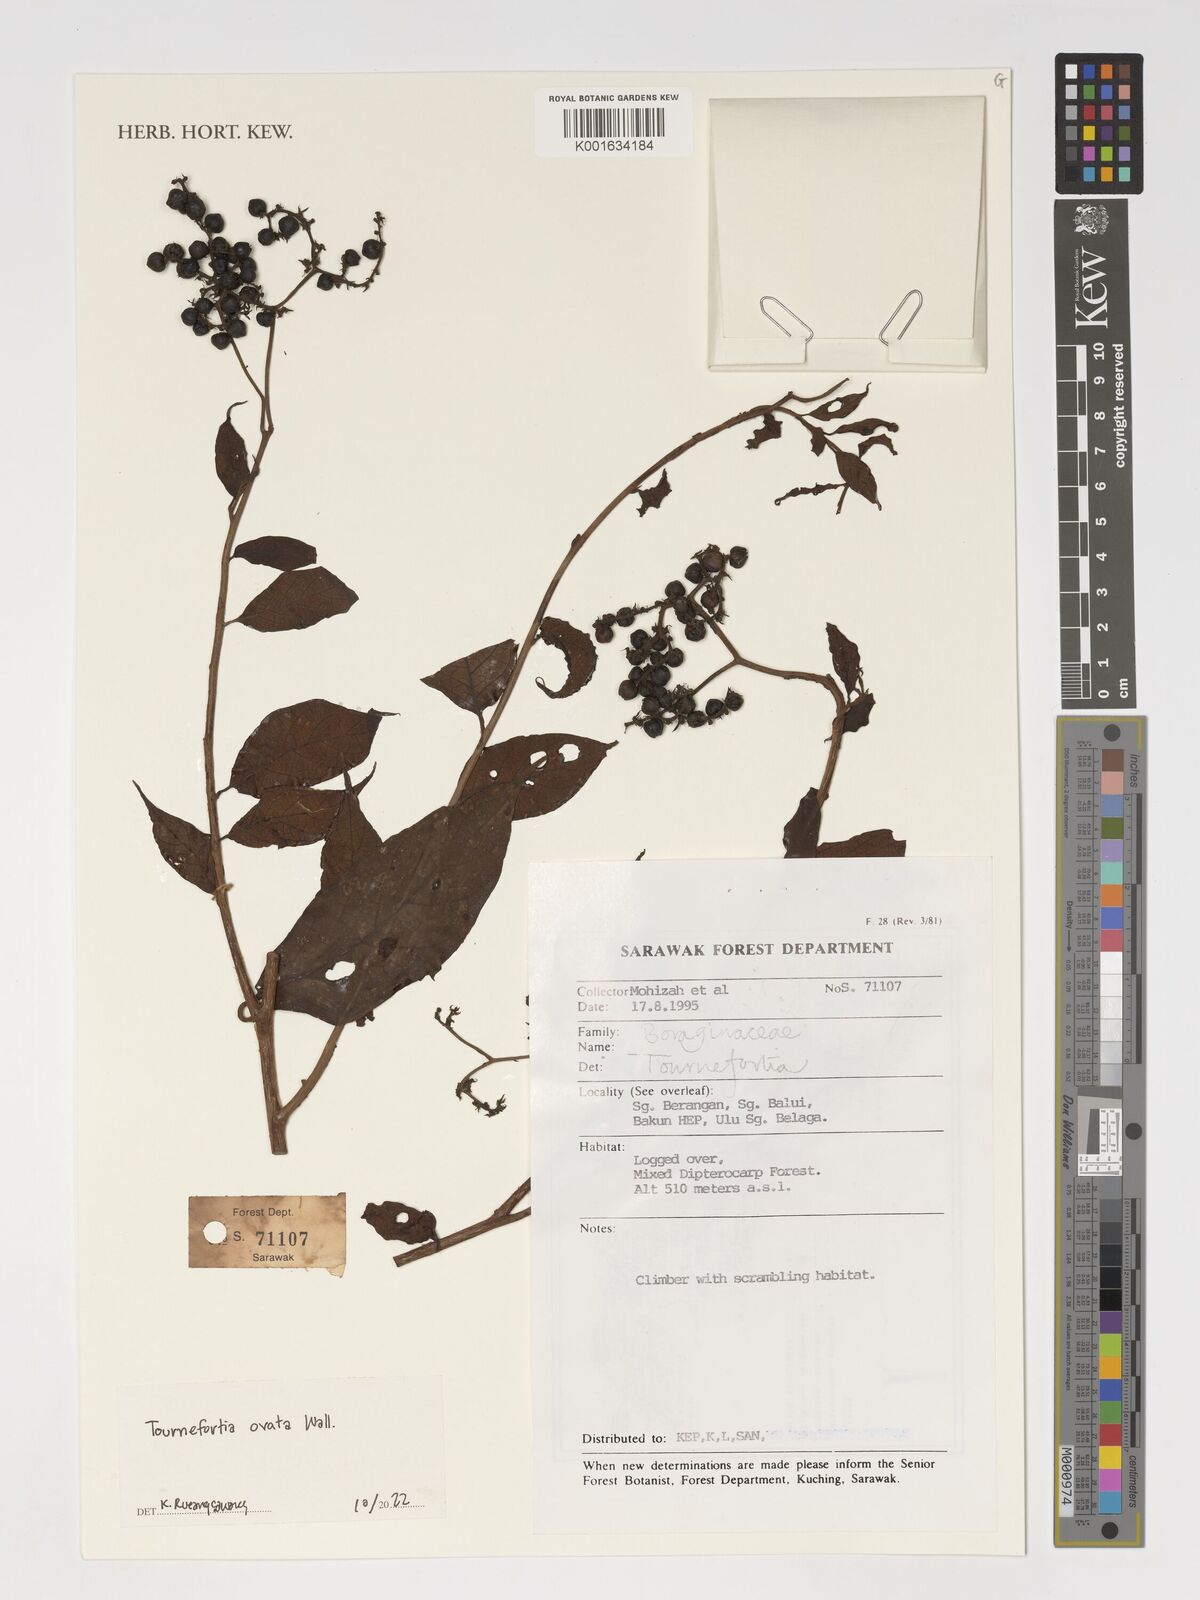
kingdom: Plantae
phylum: Tracheophyta
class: Magnoliopsida
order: Boraginales
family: Heliotropiaceae
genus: Tournefortia
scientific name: Tournefortia ovata
